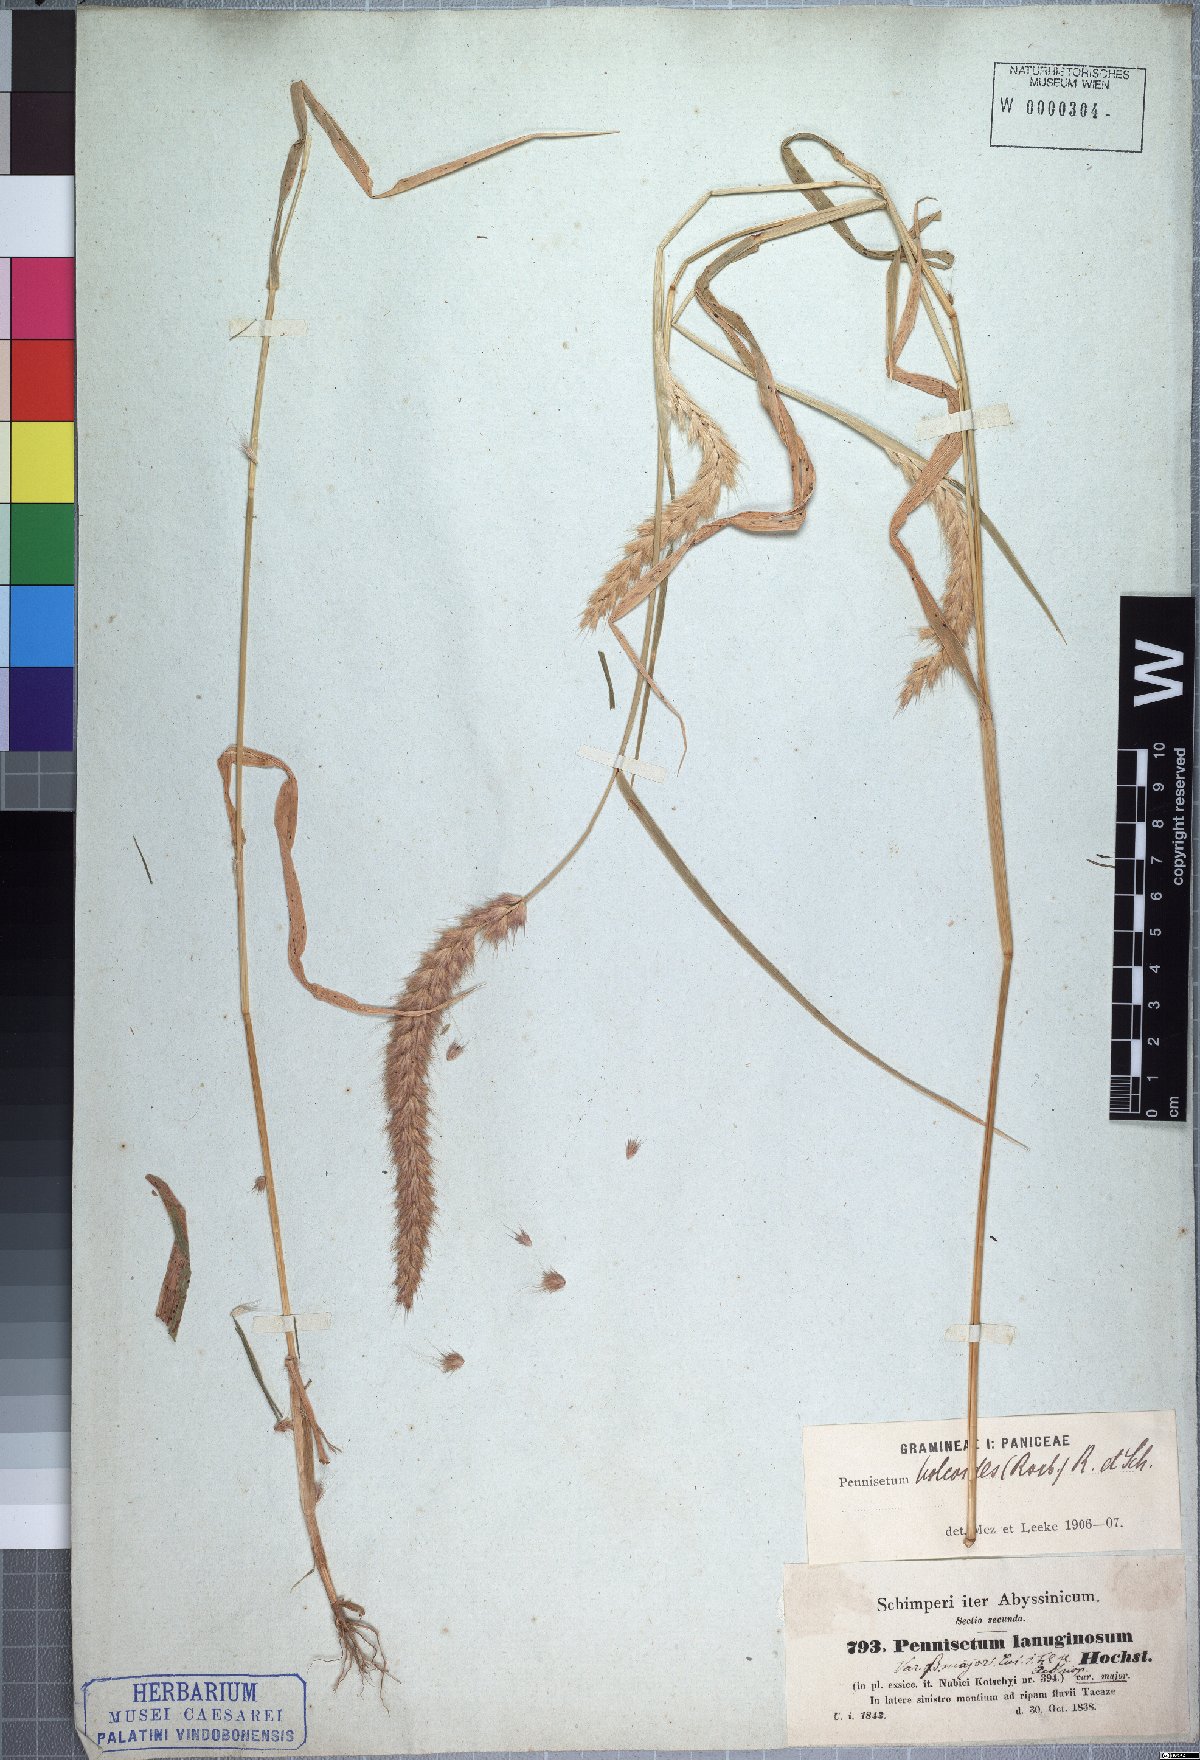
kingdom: Plantae
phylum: Tracheophyta
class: Liliopsida
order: Poales
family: Poaceae
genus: Cenchrus
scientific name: Cenchrus pedicellatus
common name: Hairy fountain grass
